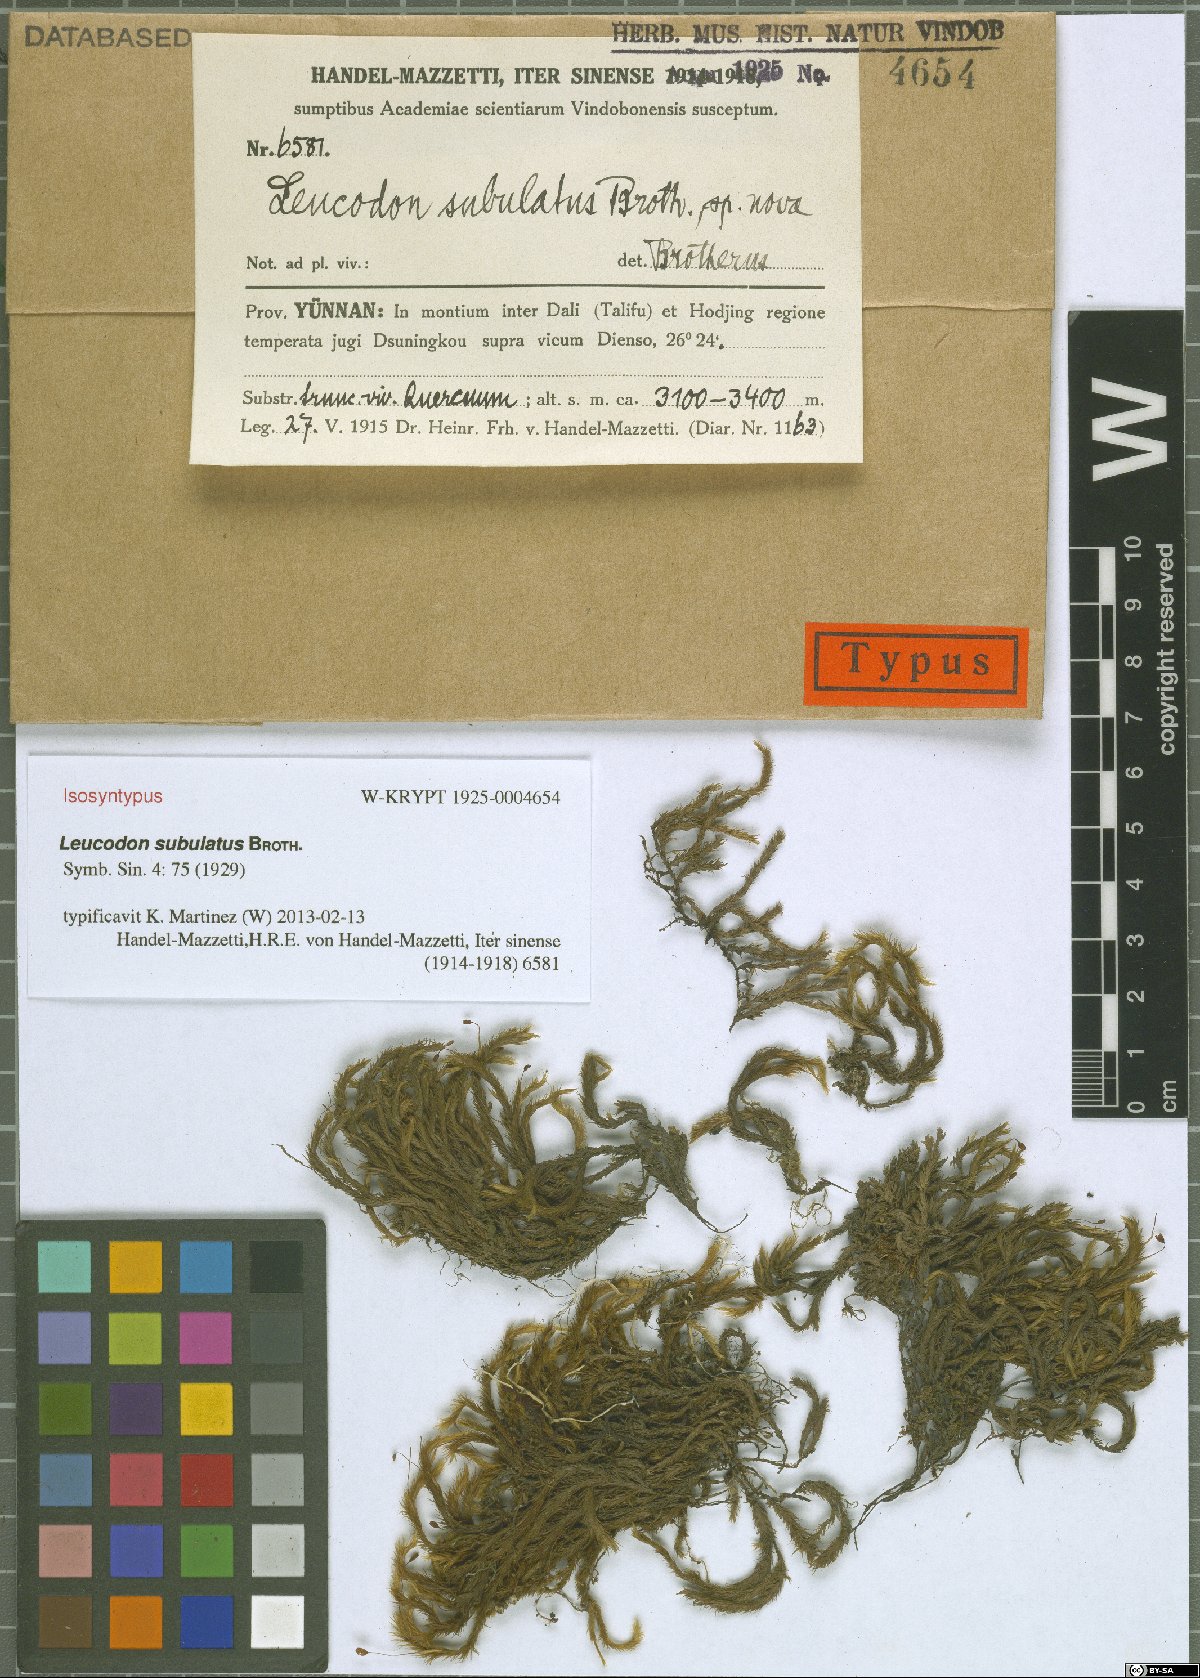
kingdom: Plantae
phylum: Bryophyta
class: Bryopsida
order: Hypnales
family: Leucodontaceae
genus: Leucodon
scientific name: Leucodon subulatus
